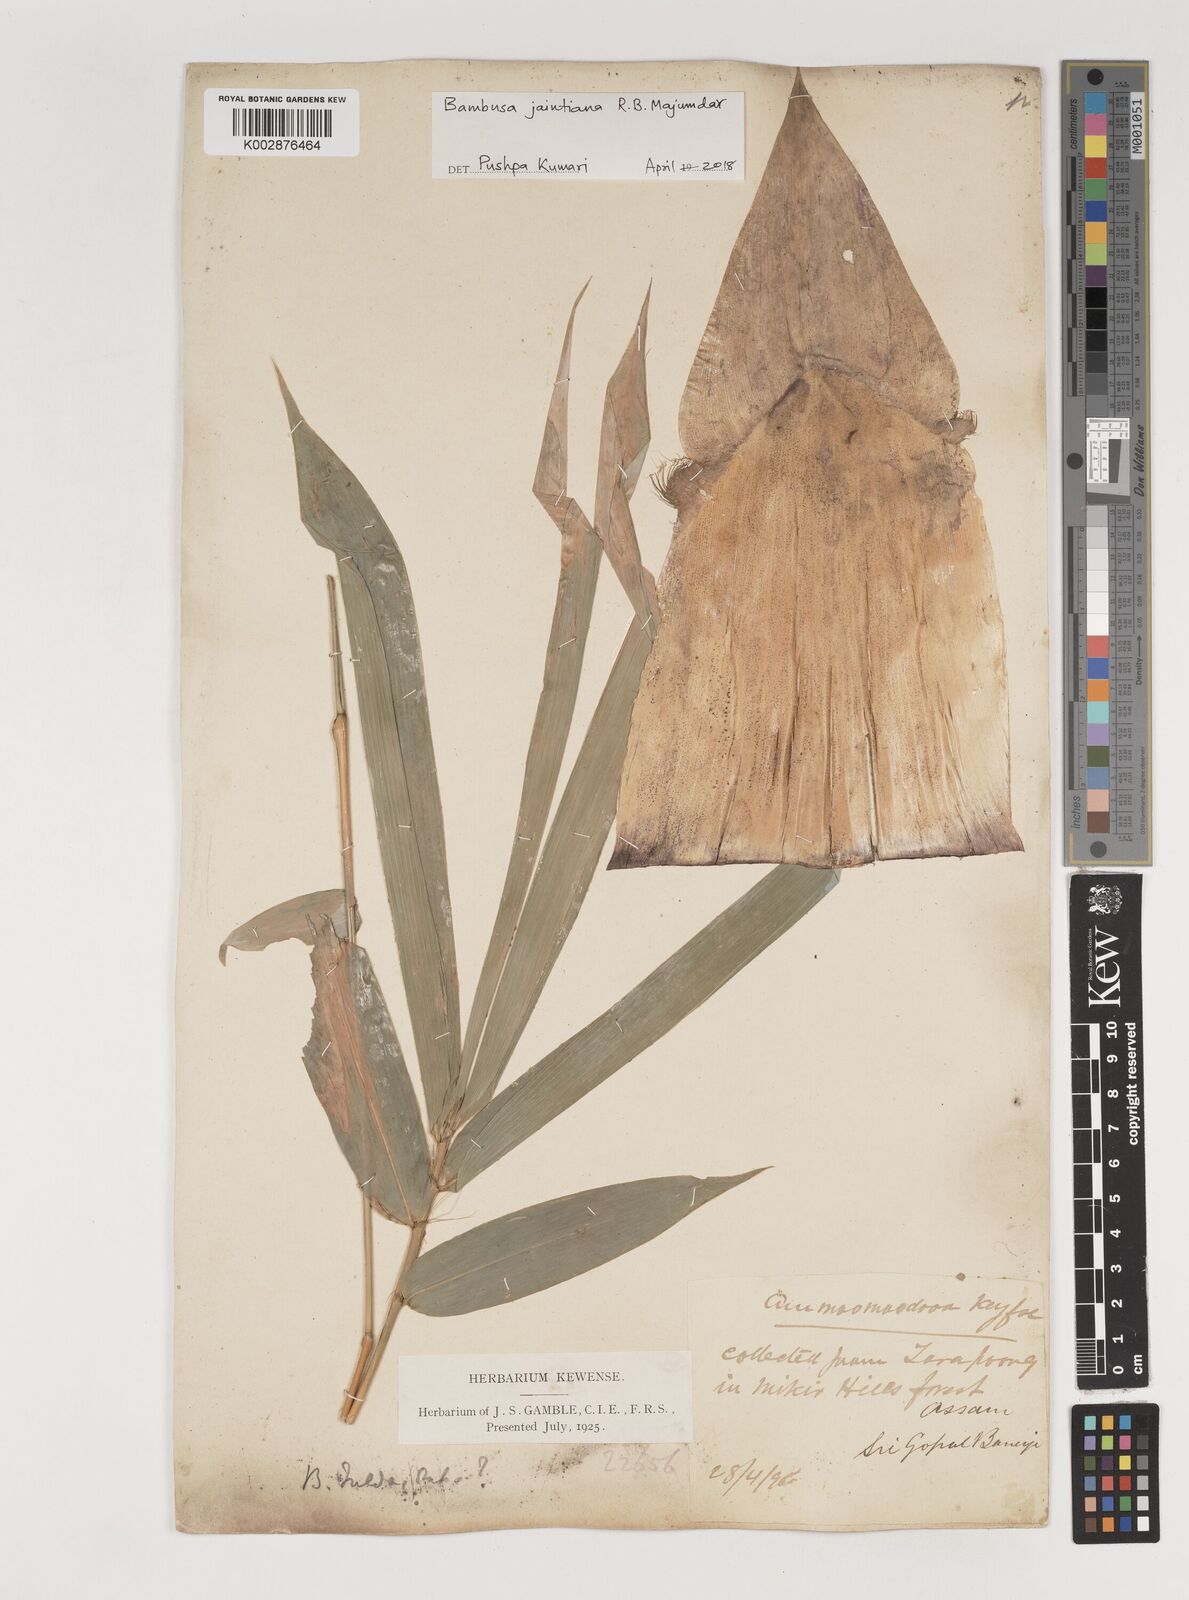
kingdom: Plantae
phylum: Tracheophyta
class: Liliopsida
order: Poales
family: Poaceae
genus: Bambusa
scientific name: Bambusa jaintiana
